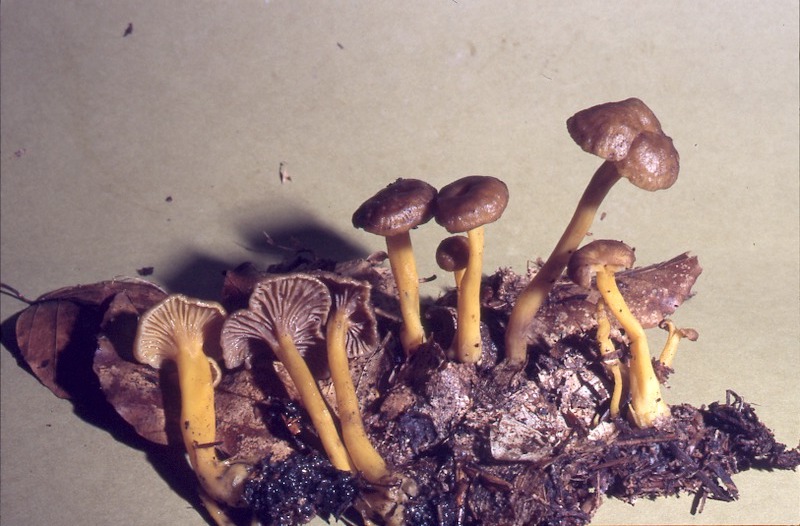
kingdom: Fungi
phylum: Basidiomycota
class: Agaricomycetes
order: Cantharellales
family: Hydnaceae
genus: Craterellus
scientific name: Craterellus tubaeformis
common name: Yellowfoot
